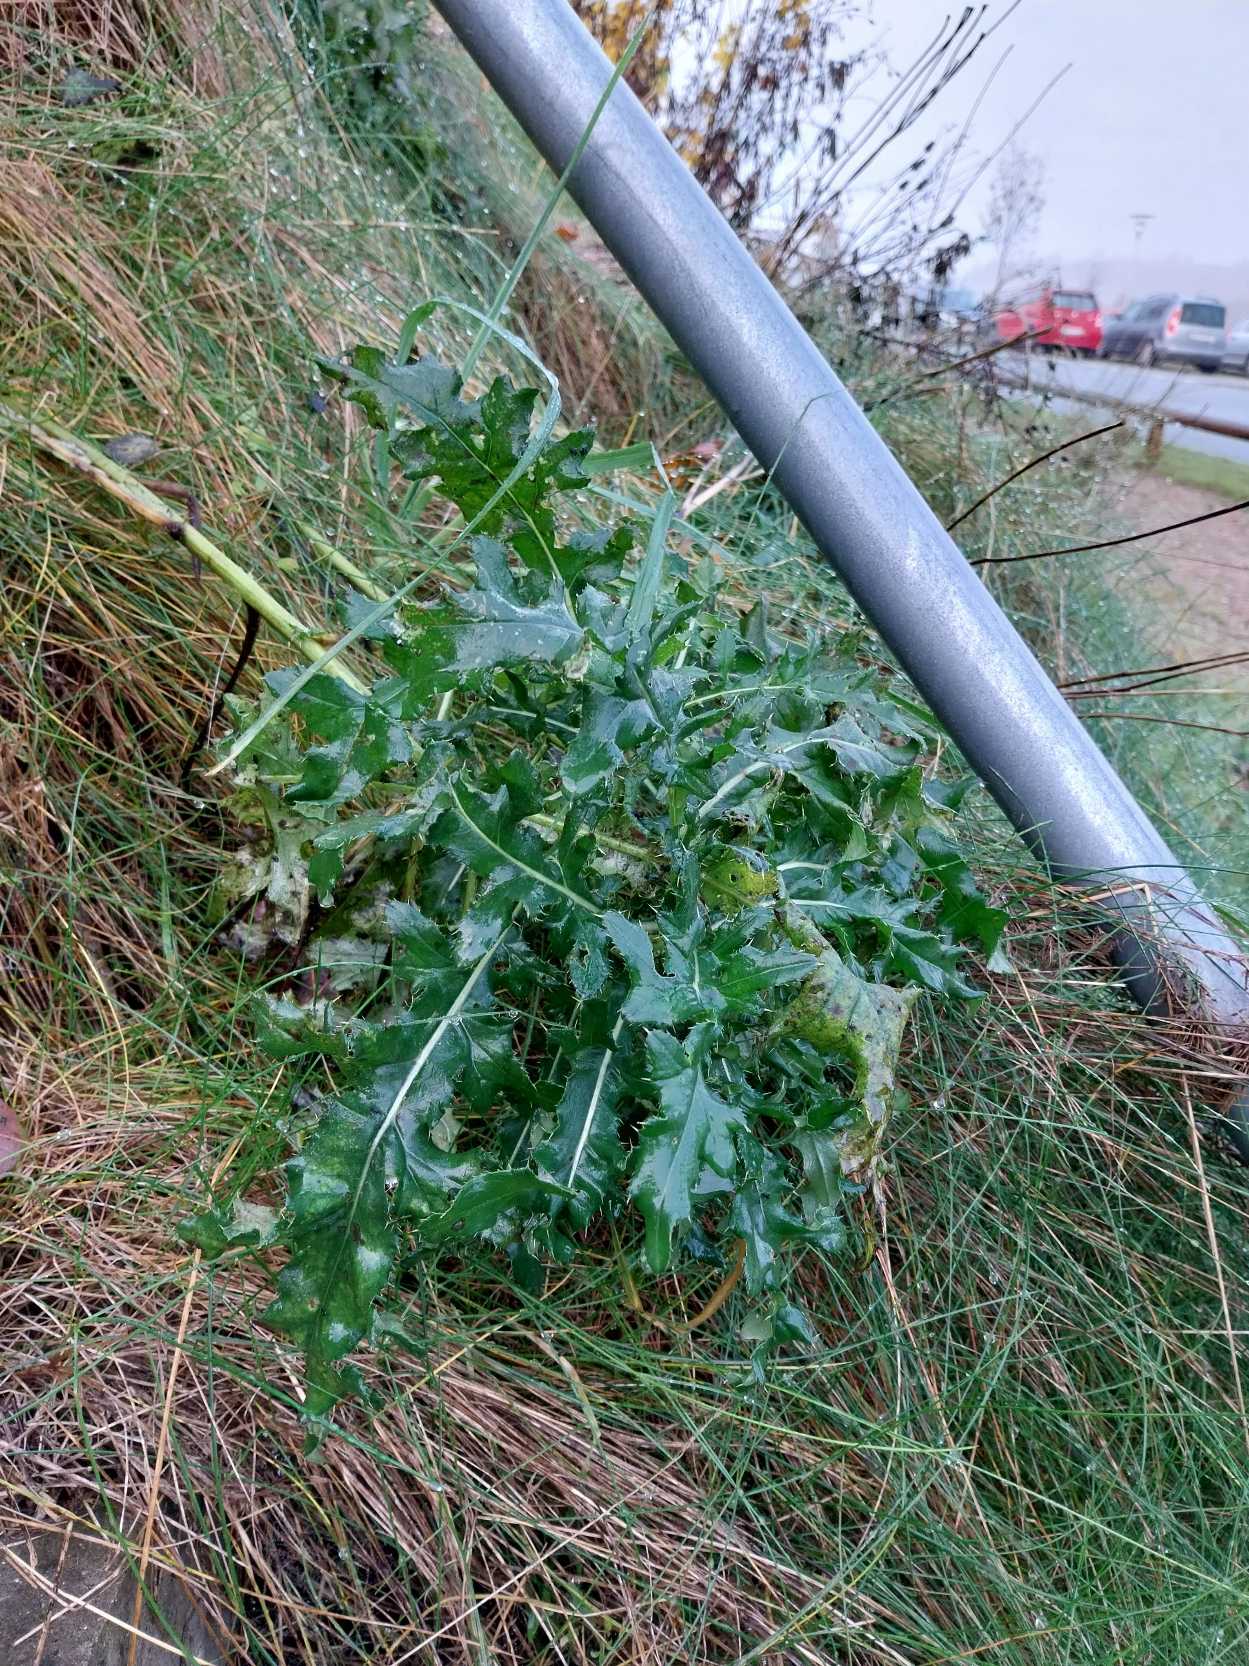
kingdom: Plantae
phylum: Tracheophyta
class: Magnoliopsida
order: Asterales
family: Asteraceae
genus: Cirsium
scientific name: Cirsium arvense
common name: Ager-tidsel
